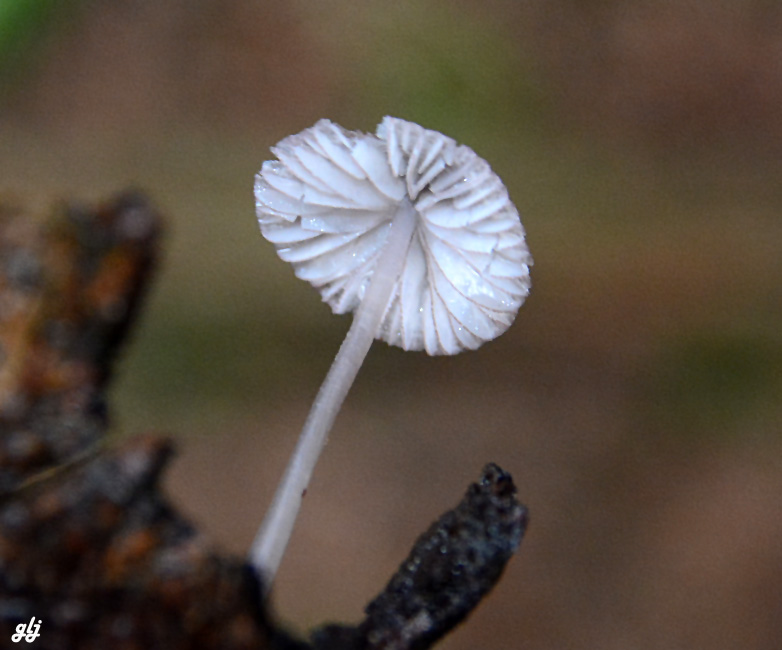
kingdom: Fungi
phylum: Basidiomycota
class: Agaricomycetes
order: Agaricales
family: Mycenaceae
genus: Mycena
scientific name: Mycena rubromarginata
